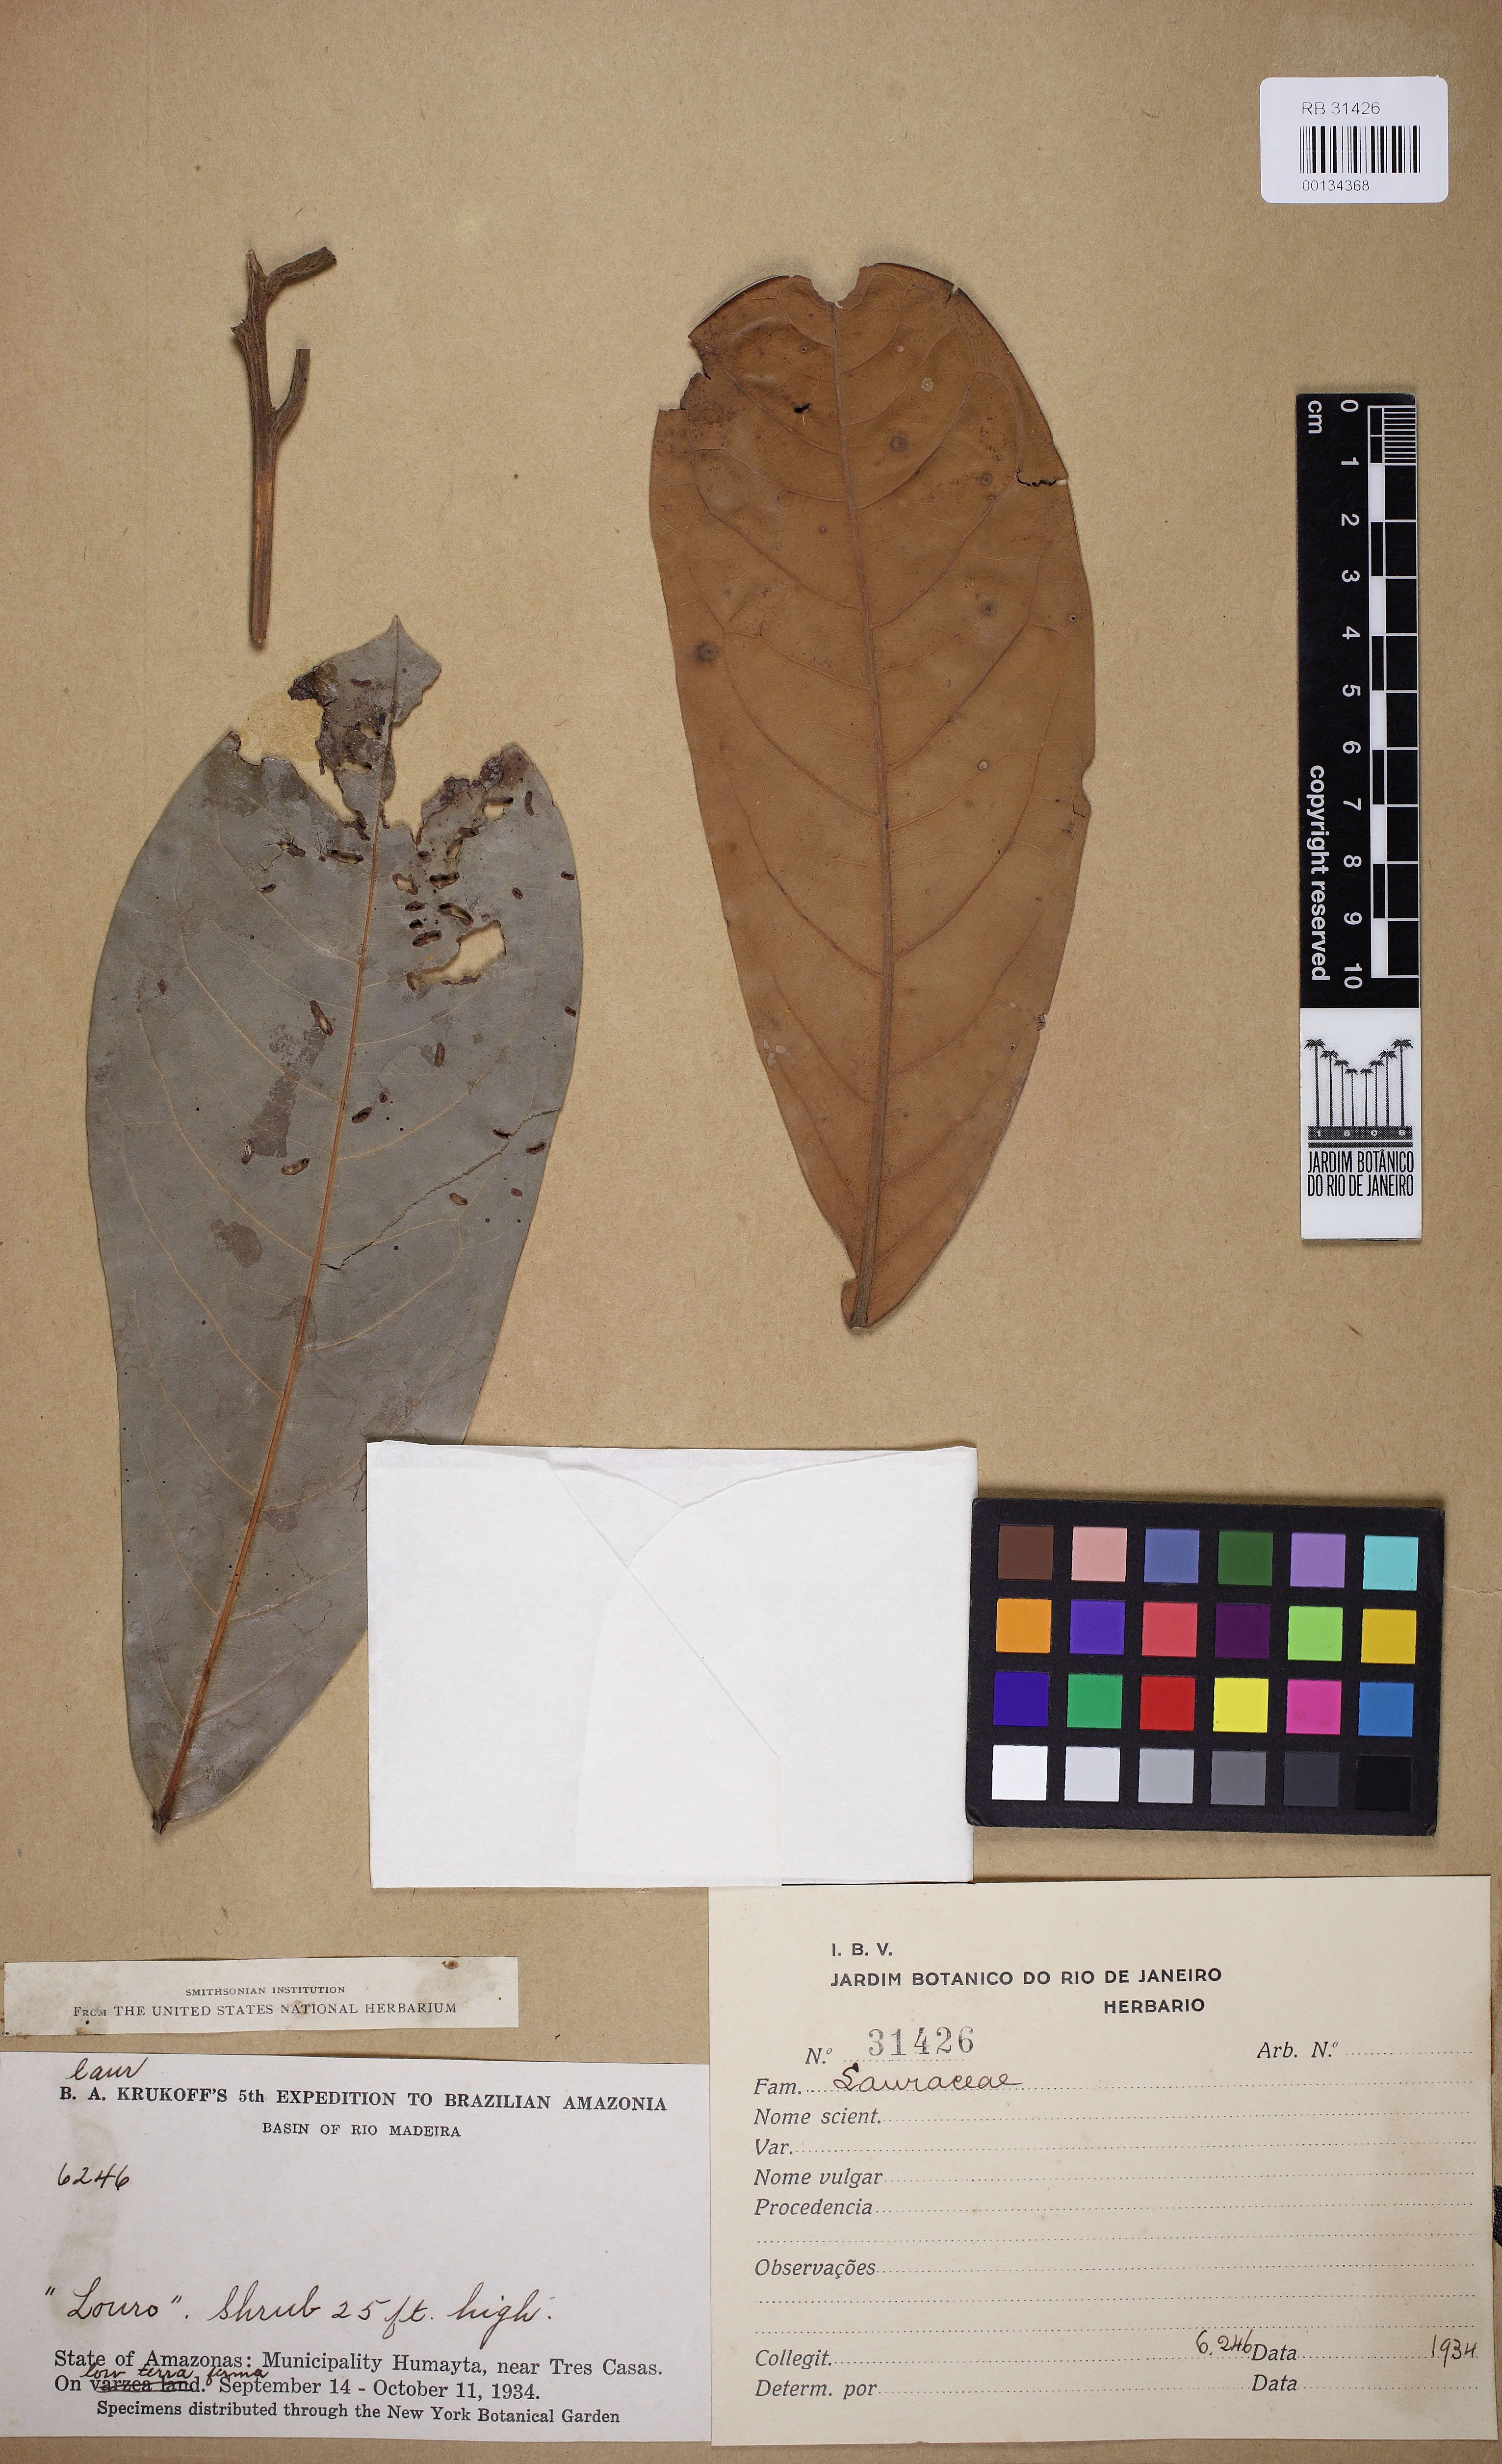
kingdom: Plantae
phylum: Tracheophyta
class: Magnoliopsida
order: Laurales
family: Lauraceae
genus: Aniba
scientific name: Aniba
